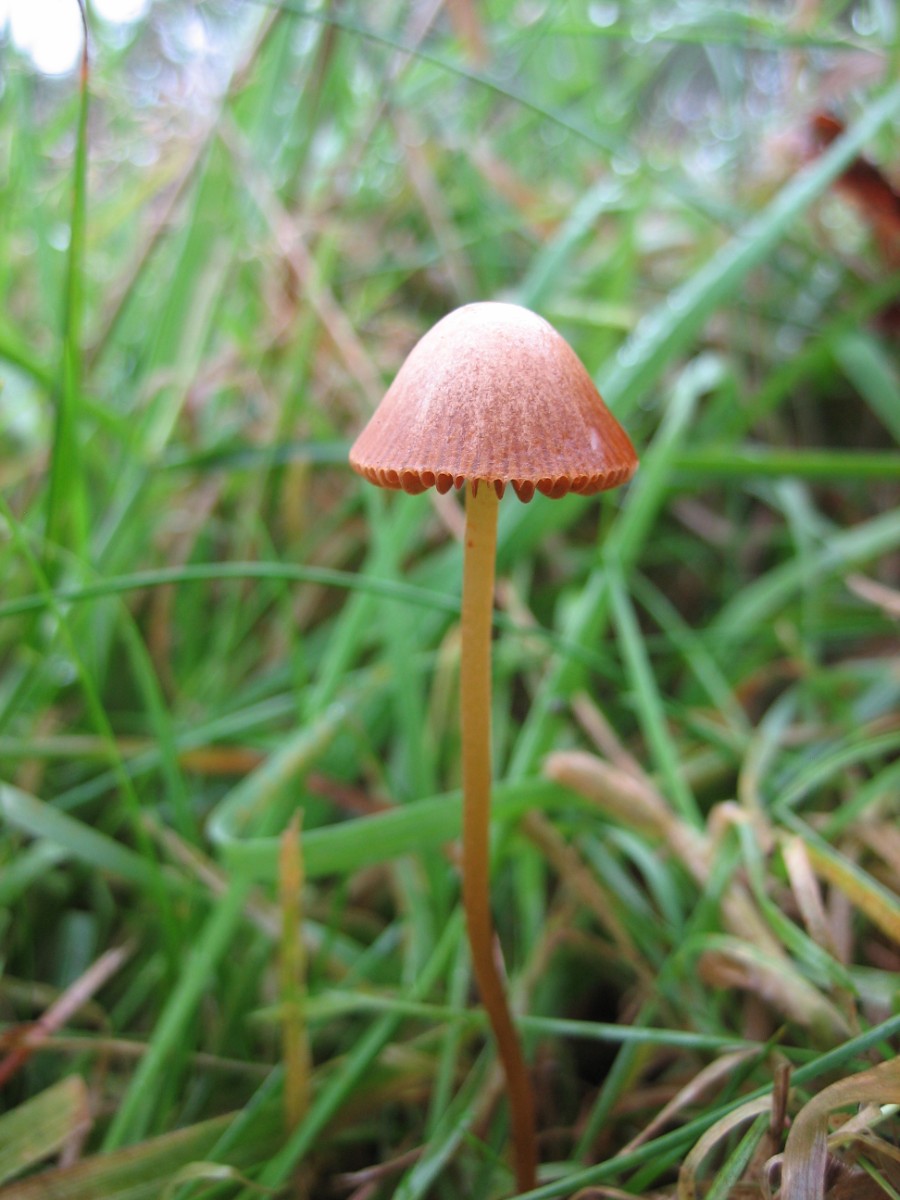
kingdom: Fungi
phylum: Basidiomycota
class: Agaricomycetes
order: Agaricales
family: Bolbitiaceae
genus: Conocybe
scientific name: Conocybe
